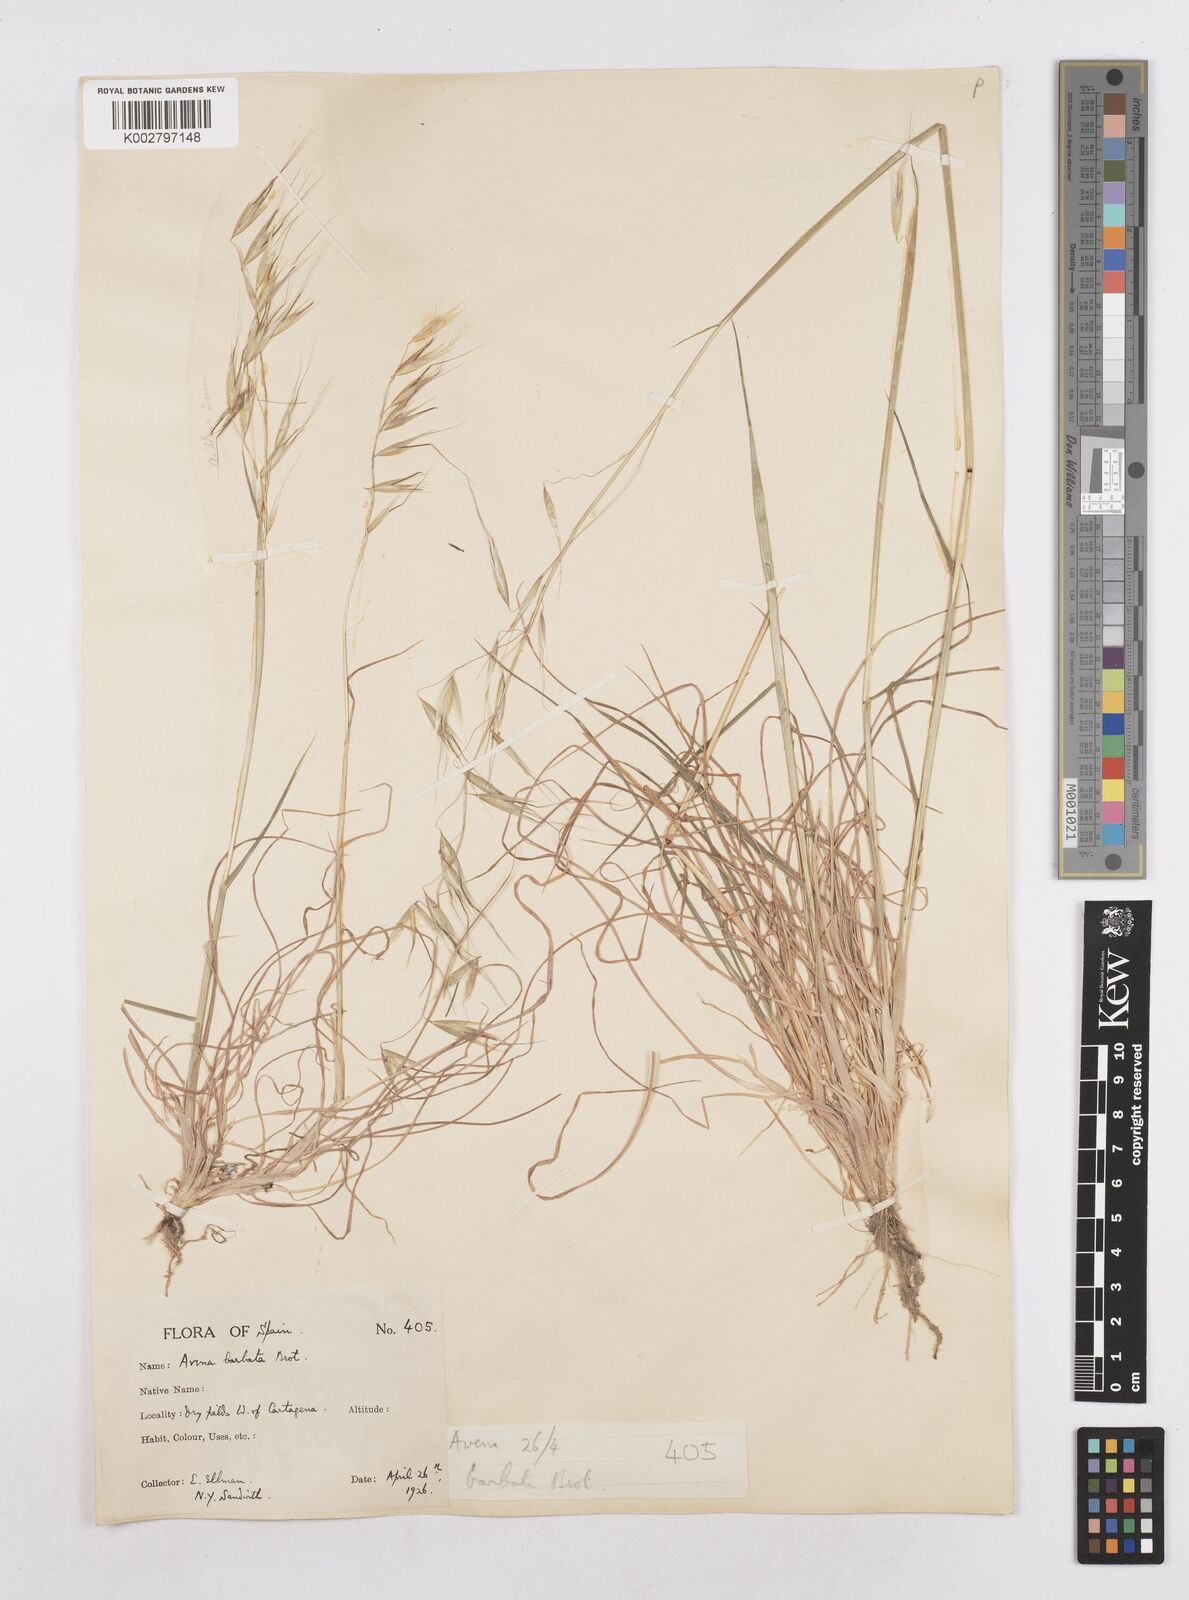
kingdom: Plantae
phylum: Tracheophyta
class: Liliopsida
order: Poales
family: Poaceae
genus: Avena
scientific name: Avena
